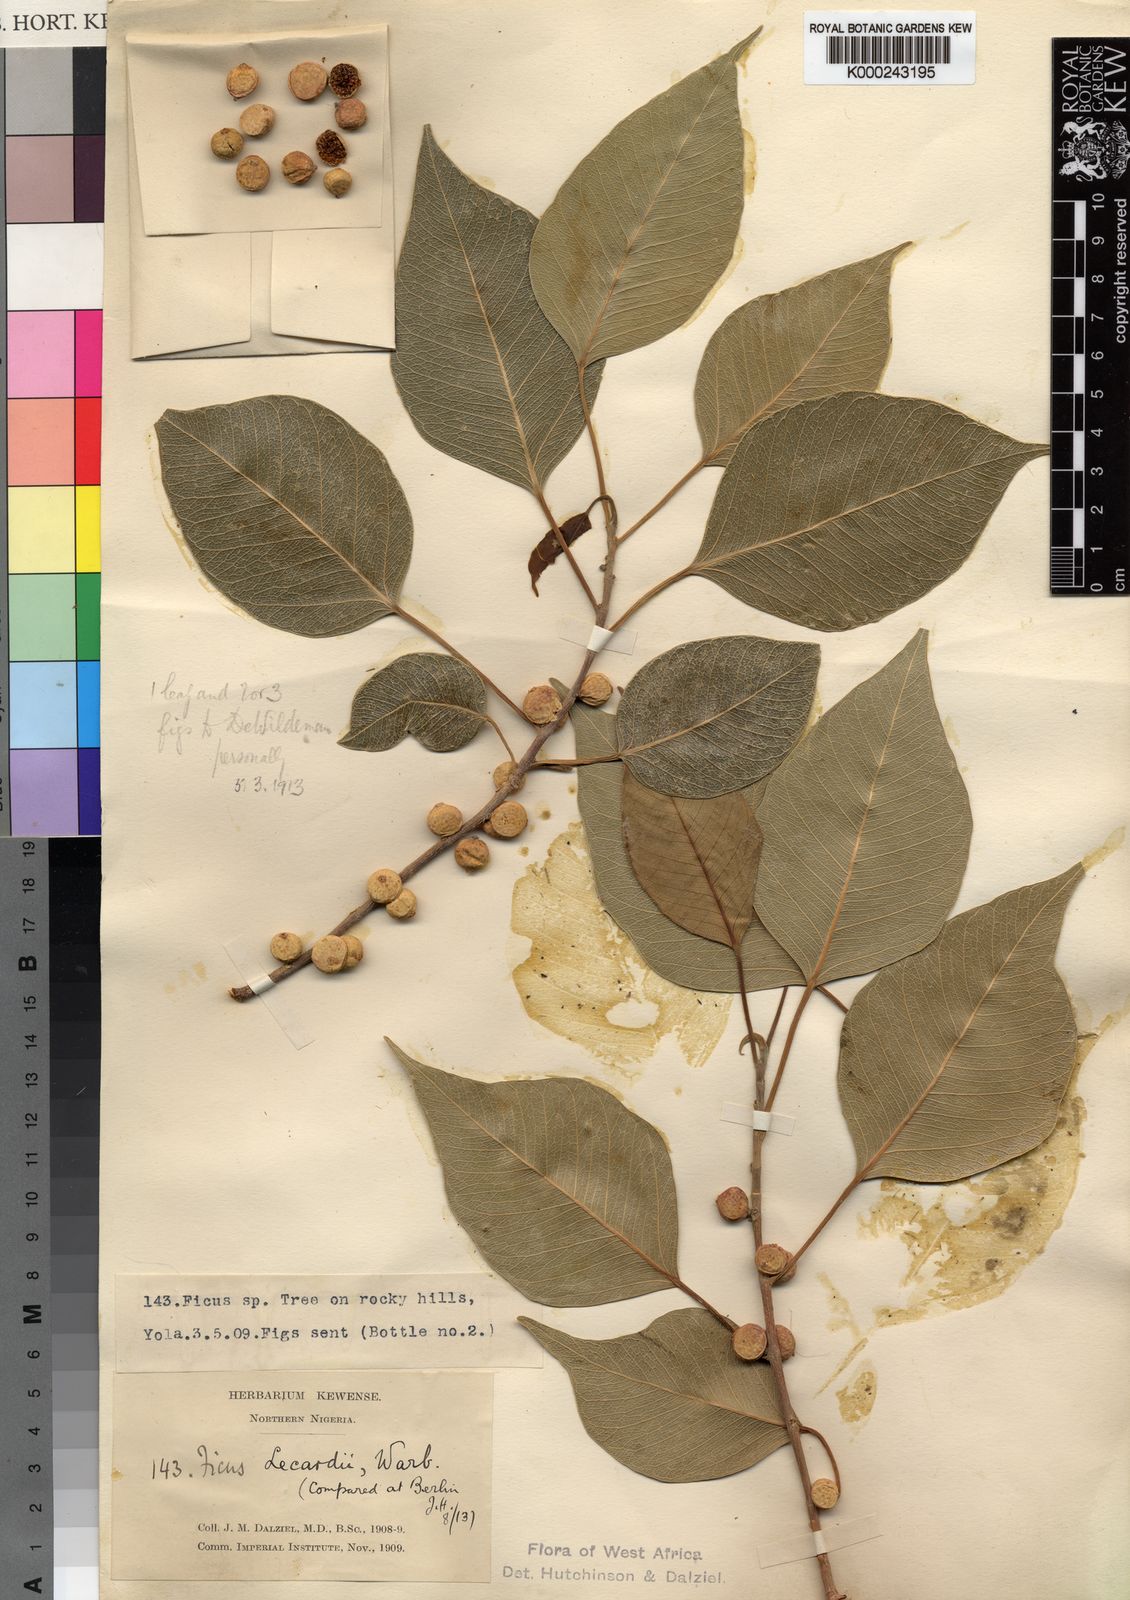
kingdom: Plantae
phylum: Tracheophyta
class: Magnoliopsida
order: Rosales
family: Moraceae
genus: Ficus
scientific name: Ficus cordata
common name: Namaqua rock fig
